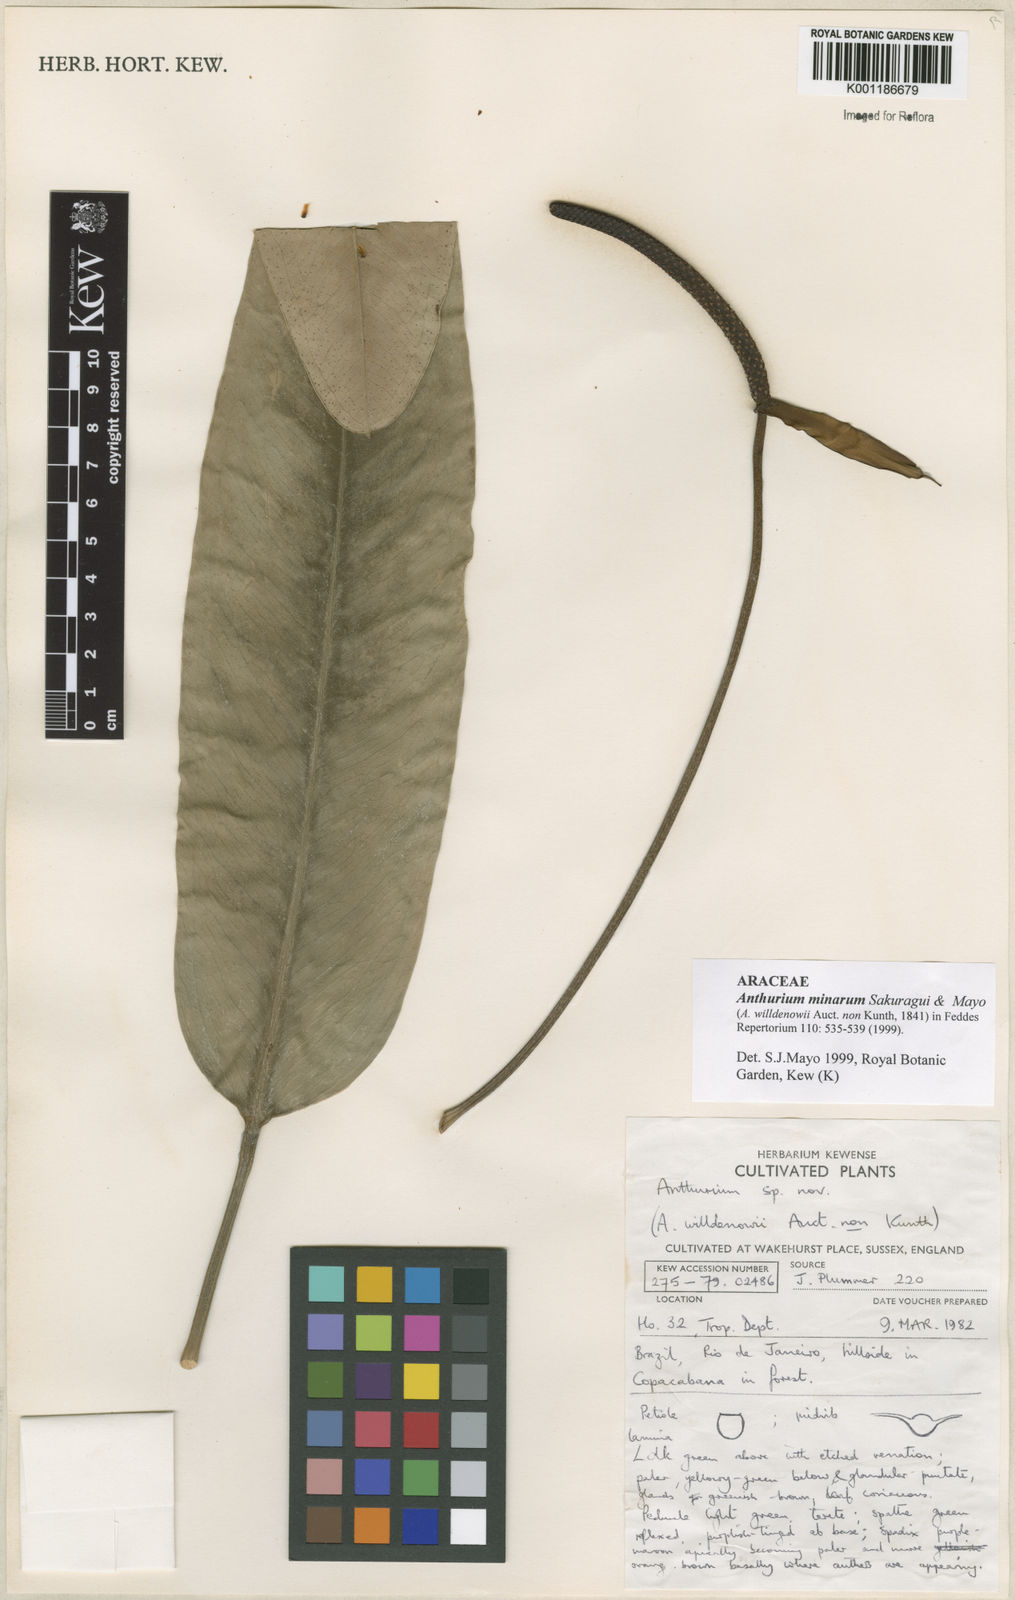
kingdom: Plantae
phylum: Tracheophyta
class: Liliopsida
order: Alismatales
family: Araceae
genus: Anthurium
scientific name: Anthurium minarum
